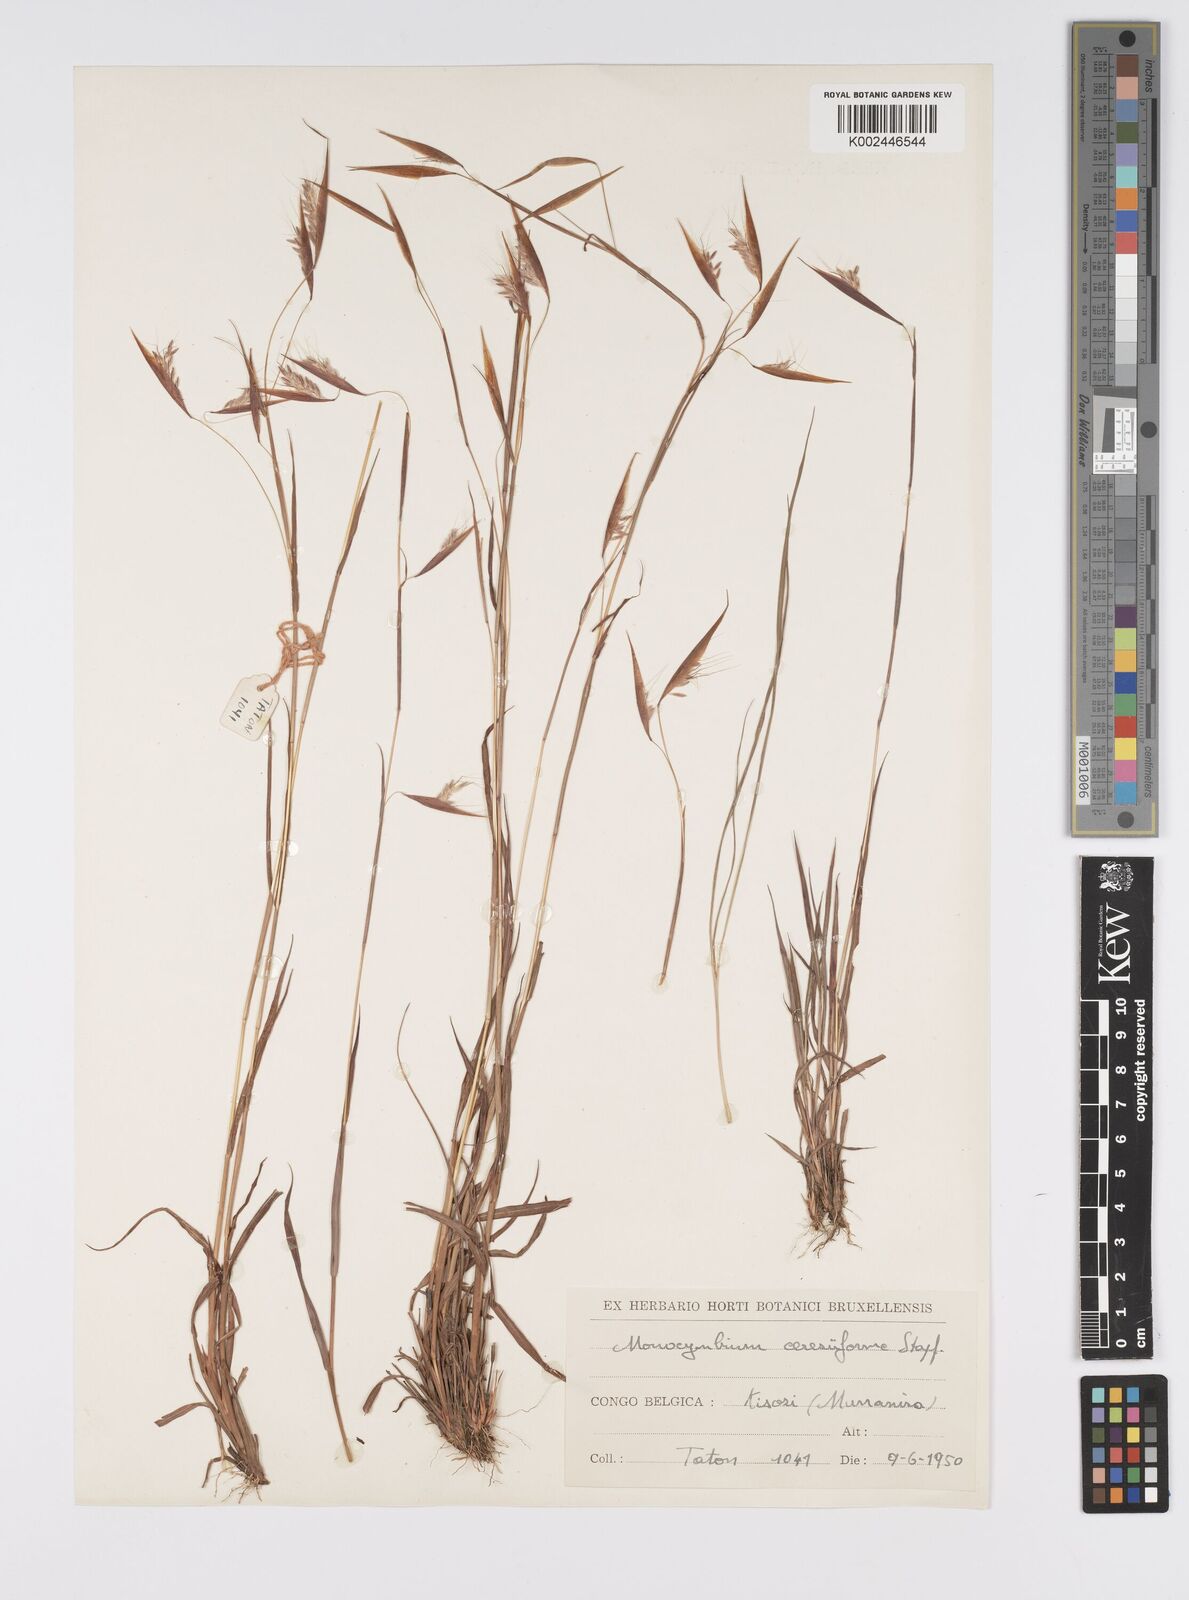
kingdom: Plantae
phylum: Tracheophyta
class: Liliopsida
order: Poales
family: Poaceae
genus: Monocymbium
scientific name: Monocymbium ceresiiforme
